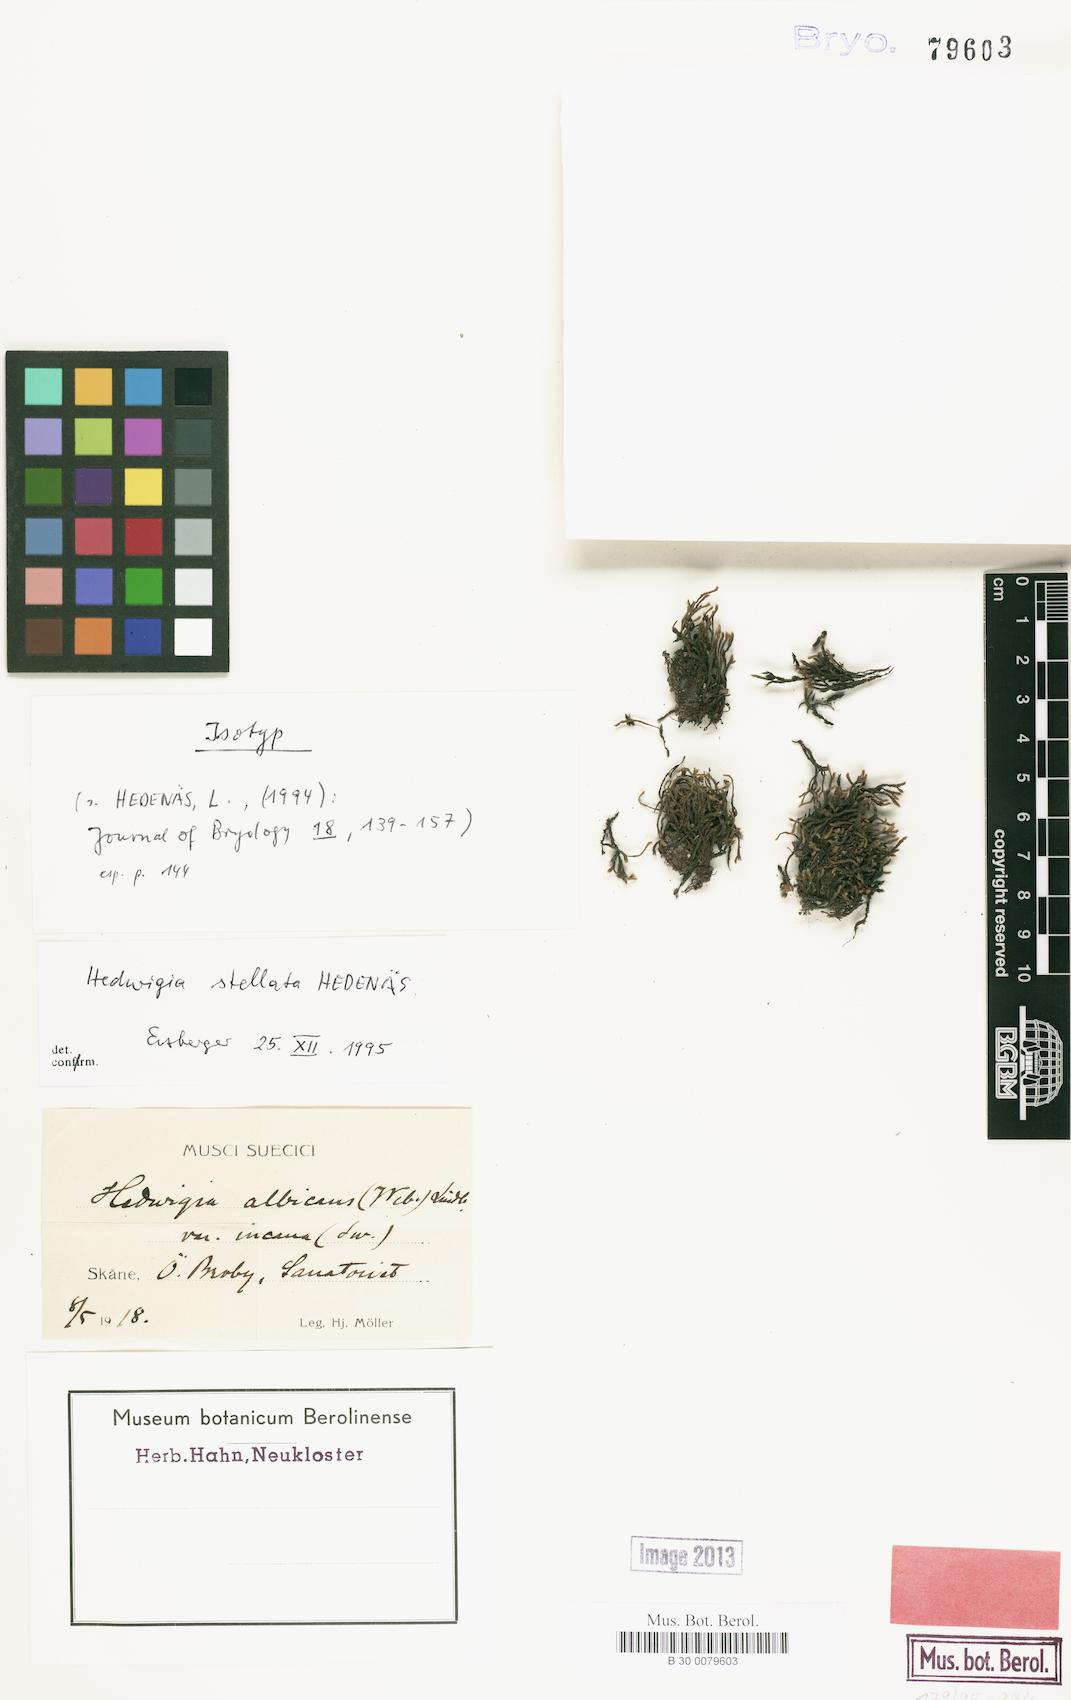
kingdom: Plantae
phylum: Bryophyta
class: Bryopsida
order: Hedwigiales
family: Hedwigiaceae
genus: Hedwigia
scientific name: Hedwigia stellata
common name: Starry hoar-moss
